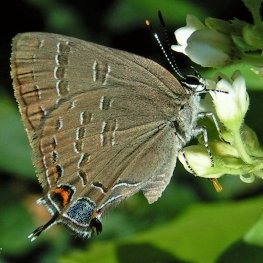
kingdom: Animalia
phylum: Arthropoda
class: Insecta
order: Lepidoptera
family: Lycaenidae
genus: Satyrium
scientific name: Satyrium calanus
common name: Banded Hairstreak
